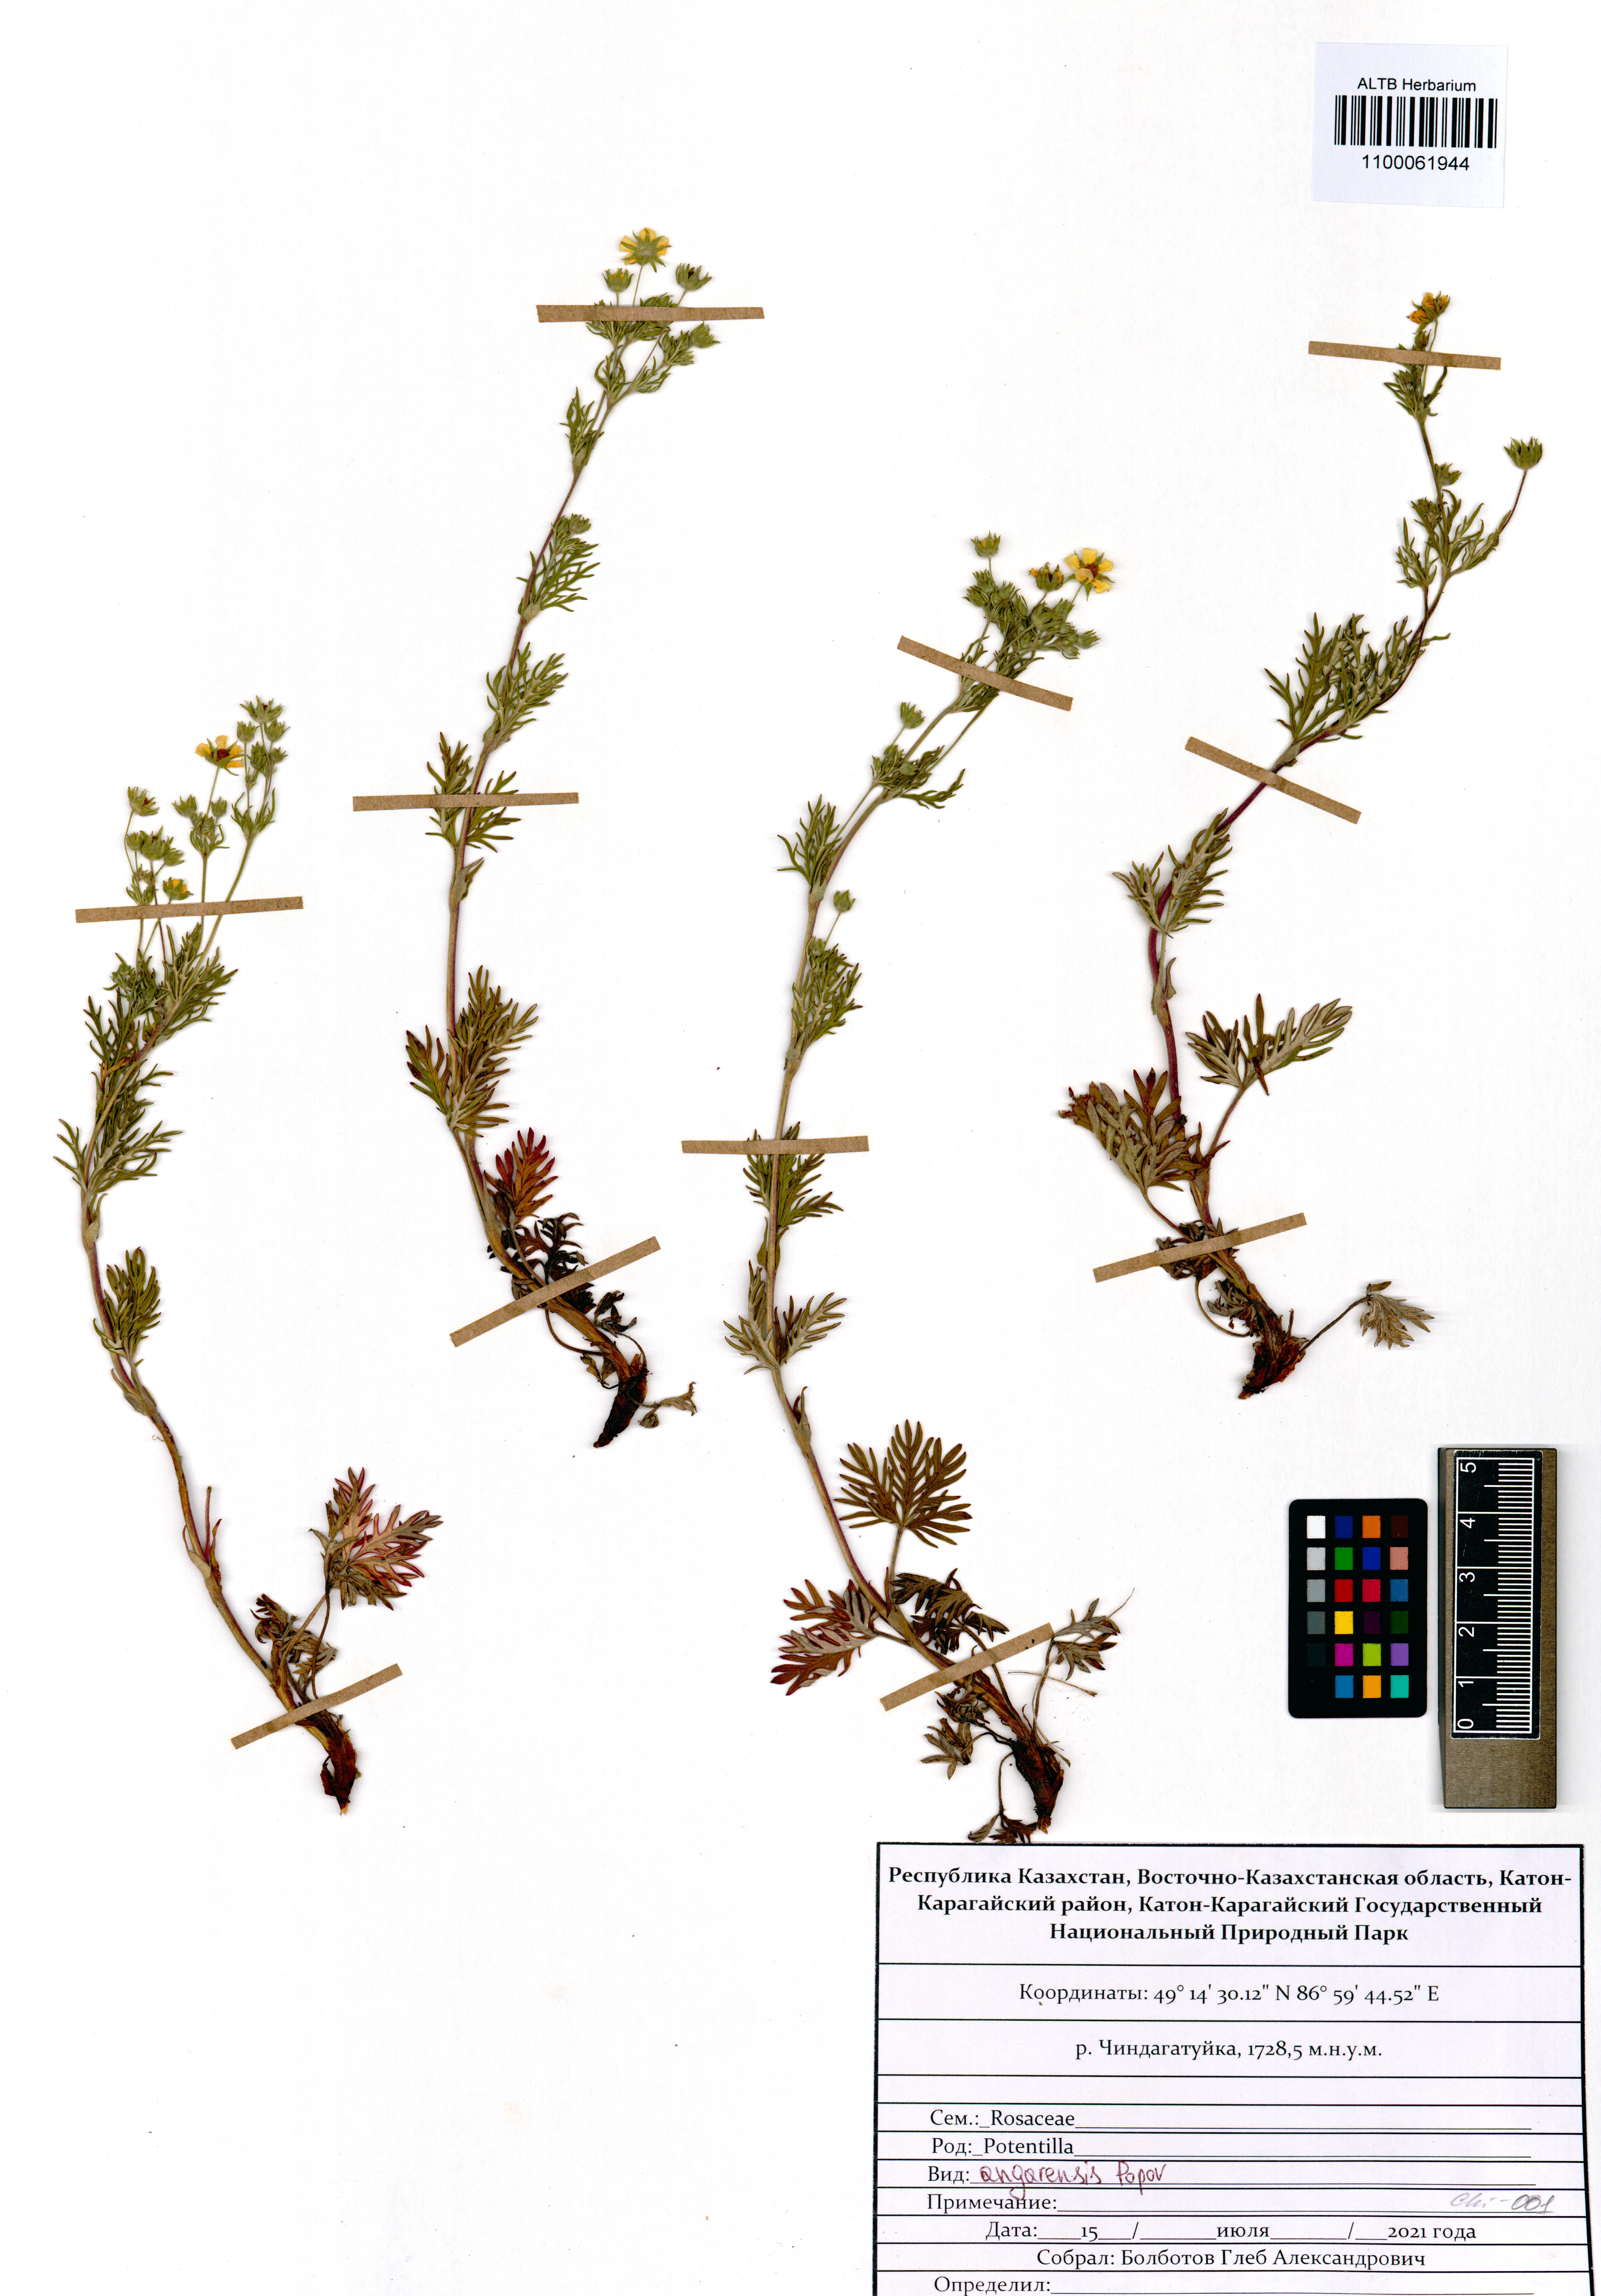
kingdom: Plantae
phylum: Tracheophyta
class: Magnoliopsida
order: Rosales
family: Rosaceae
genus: Potentilla
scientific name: Potentilla angarensis
